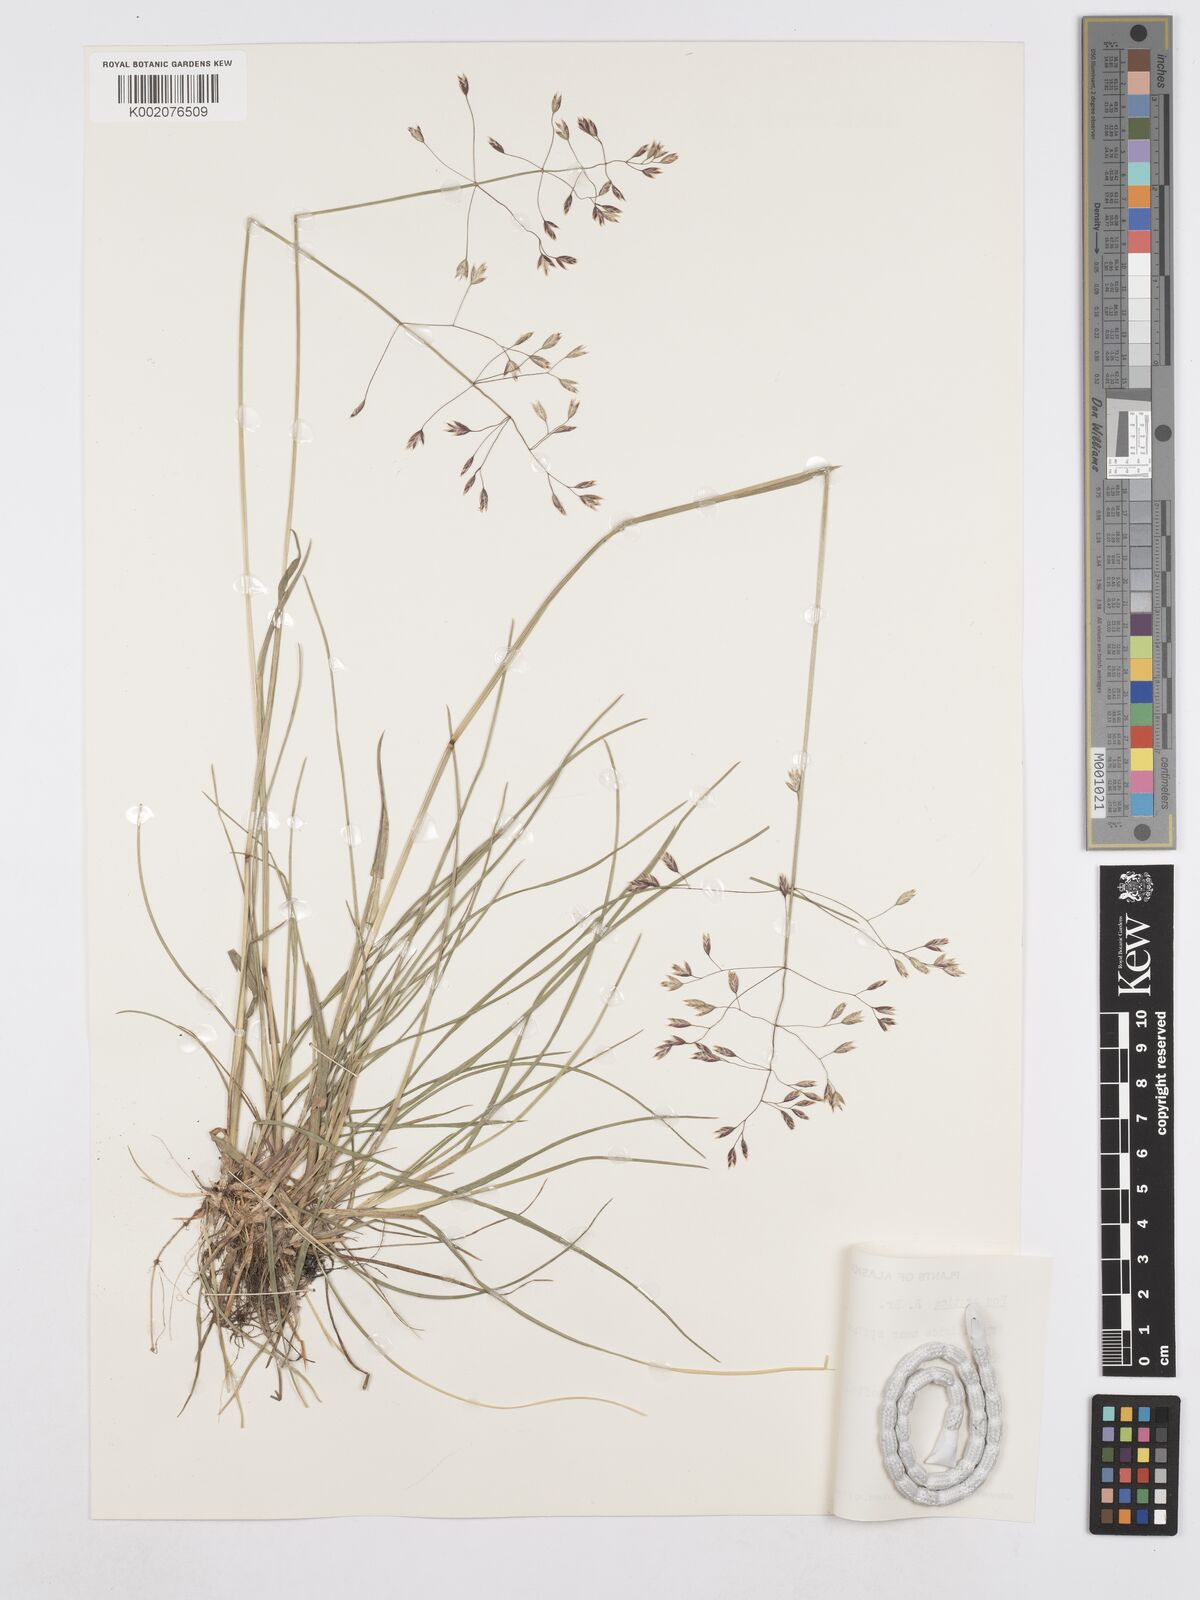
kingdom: Plantae
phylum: Tracheophyta
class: Liliopsida
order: Poales
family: Poaceae
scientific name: Poaceae
